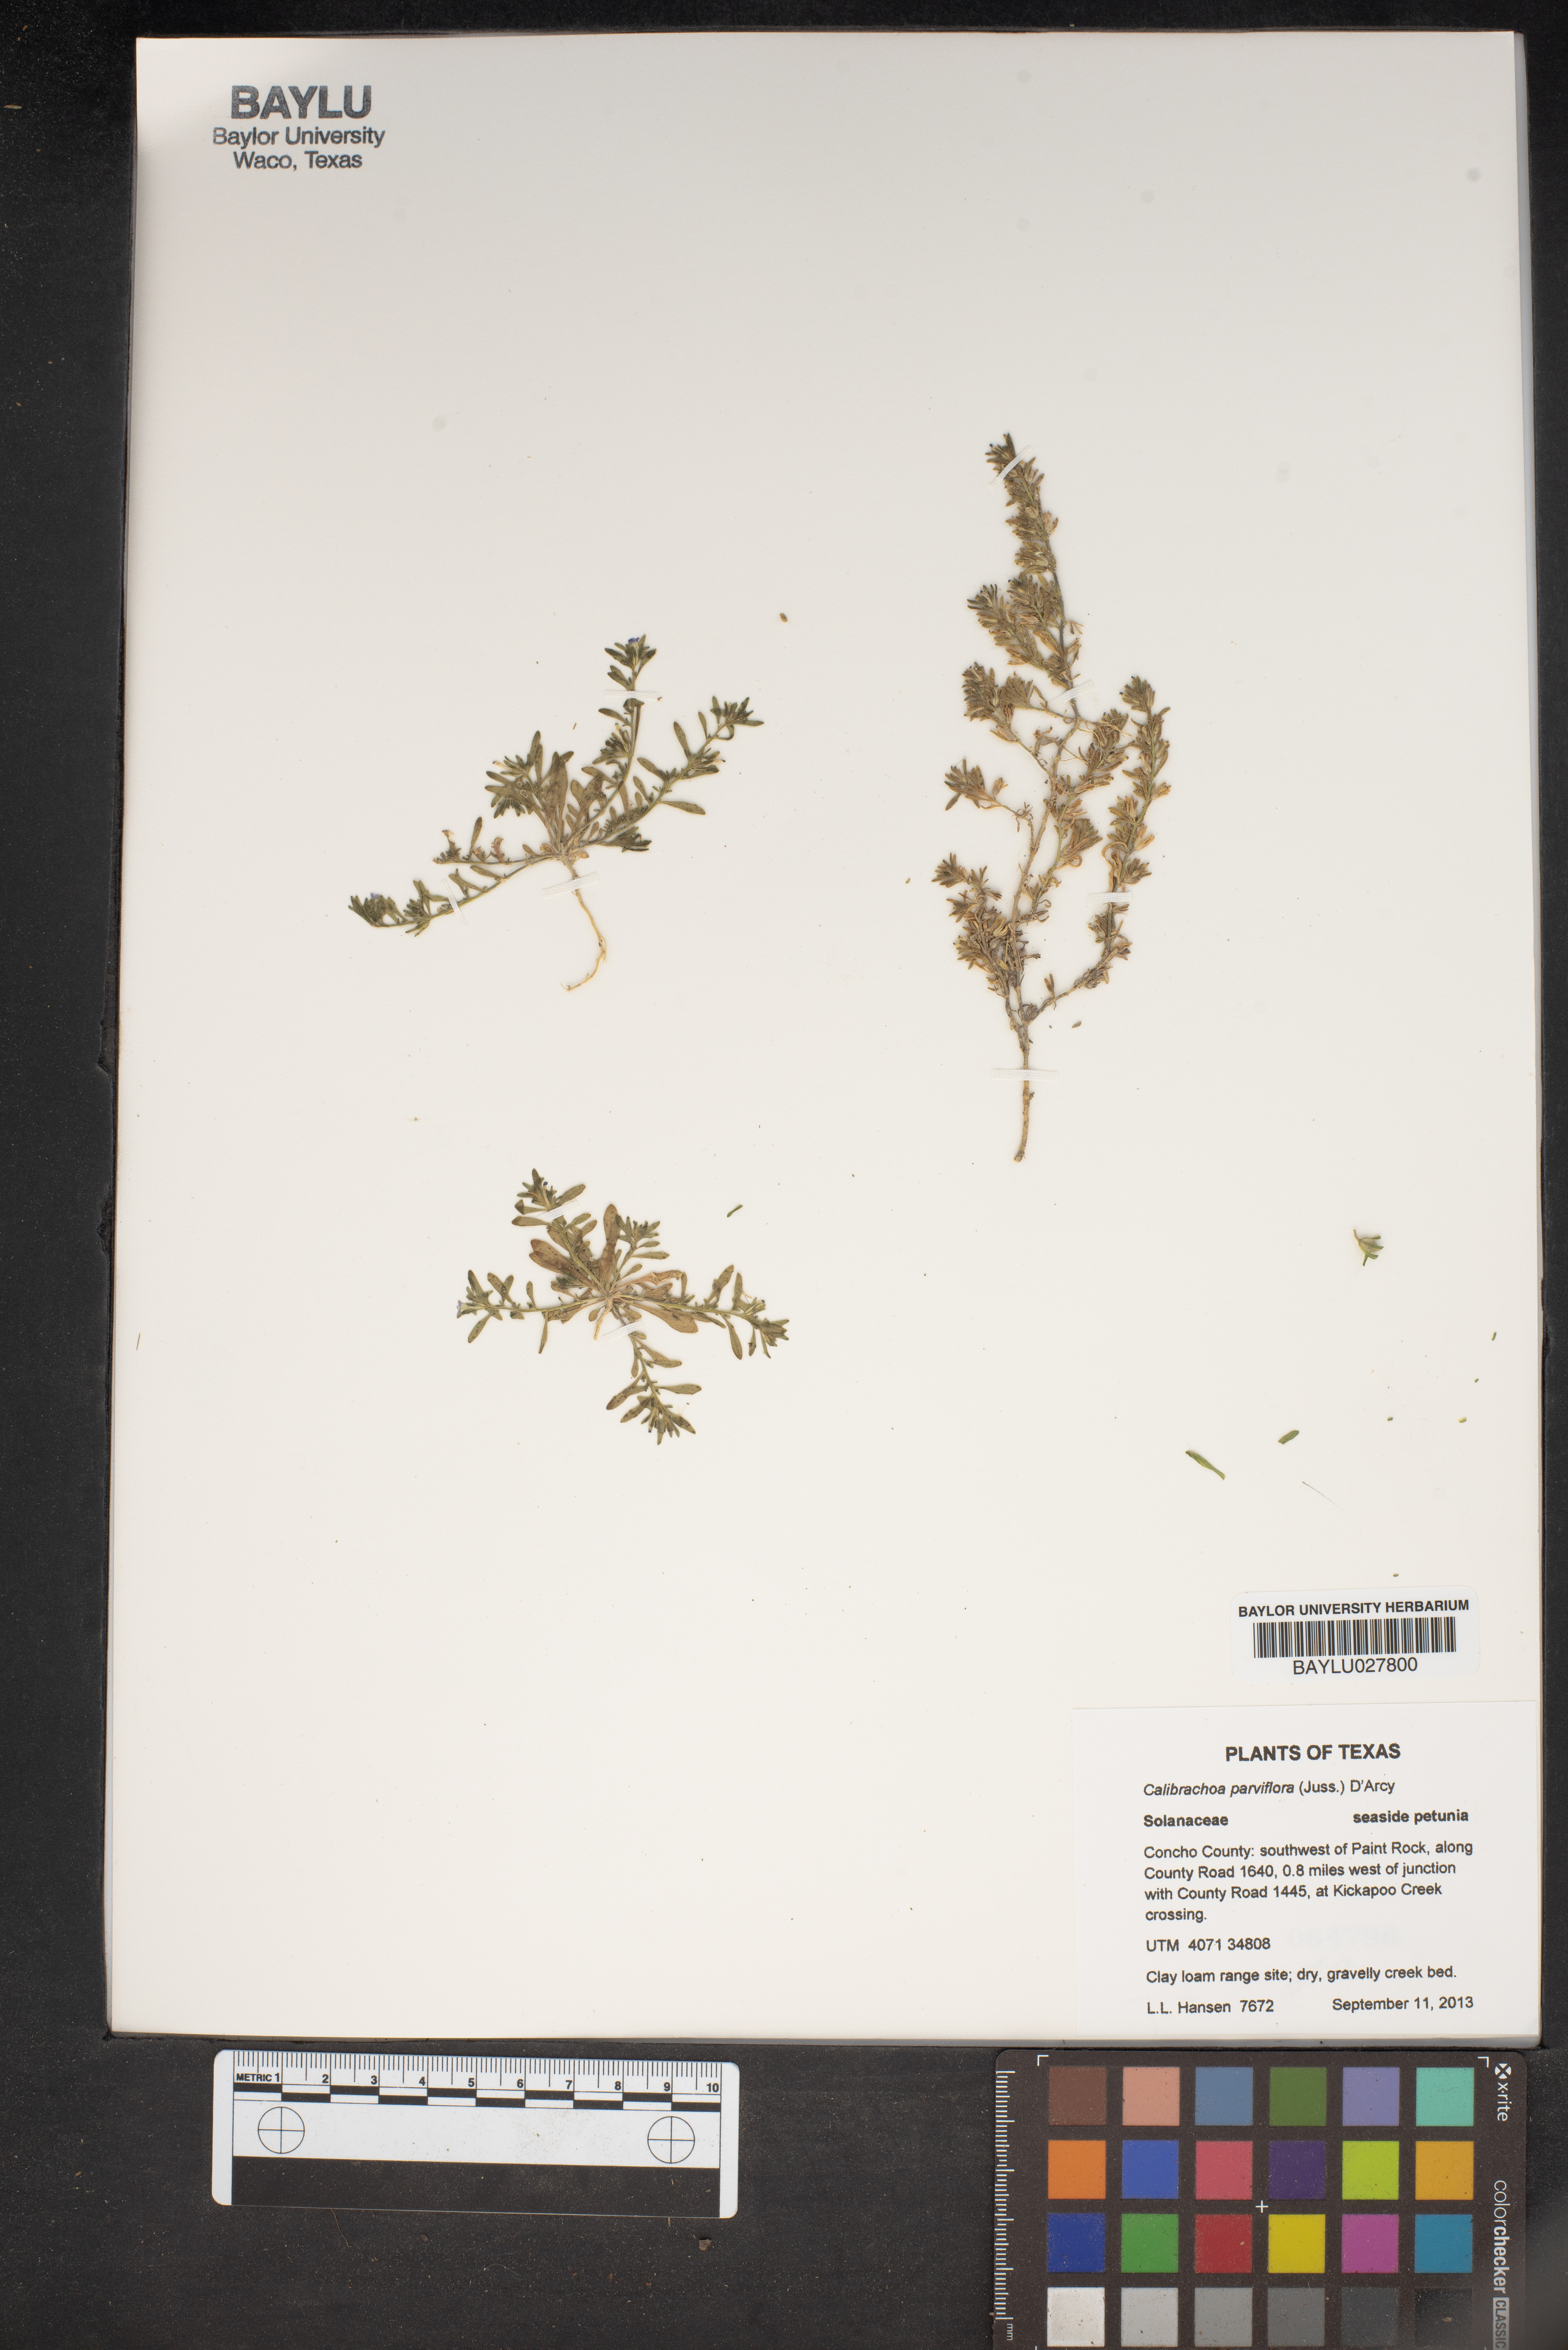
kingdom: Plantae
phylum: Tracheophyta
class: Magnoliopsida
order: Solanales
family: Solanaceae
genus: Calibrachoa
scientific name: Calibrachoa parviflora
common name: Seaside petunia
